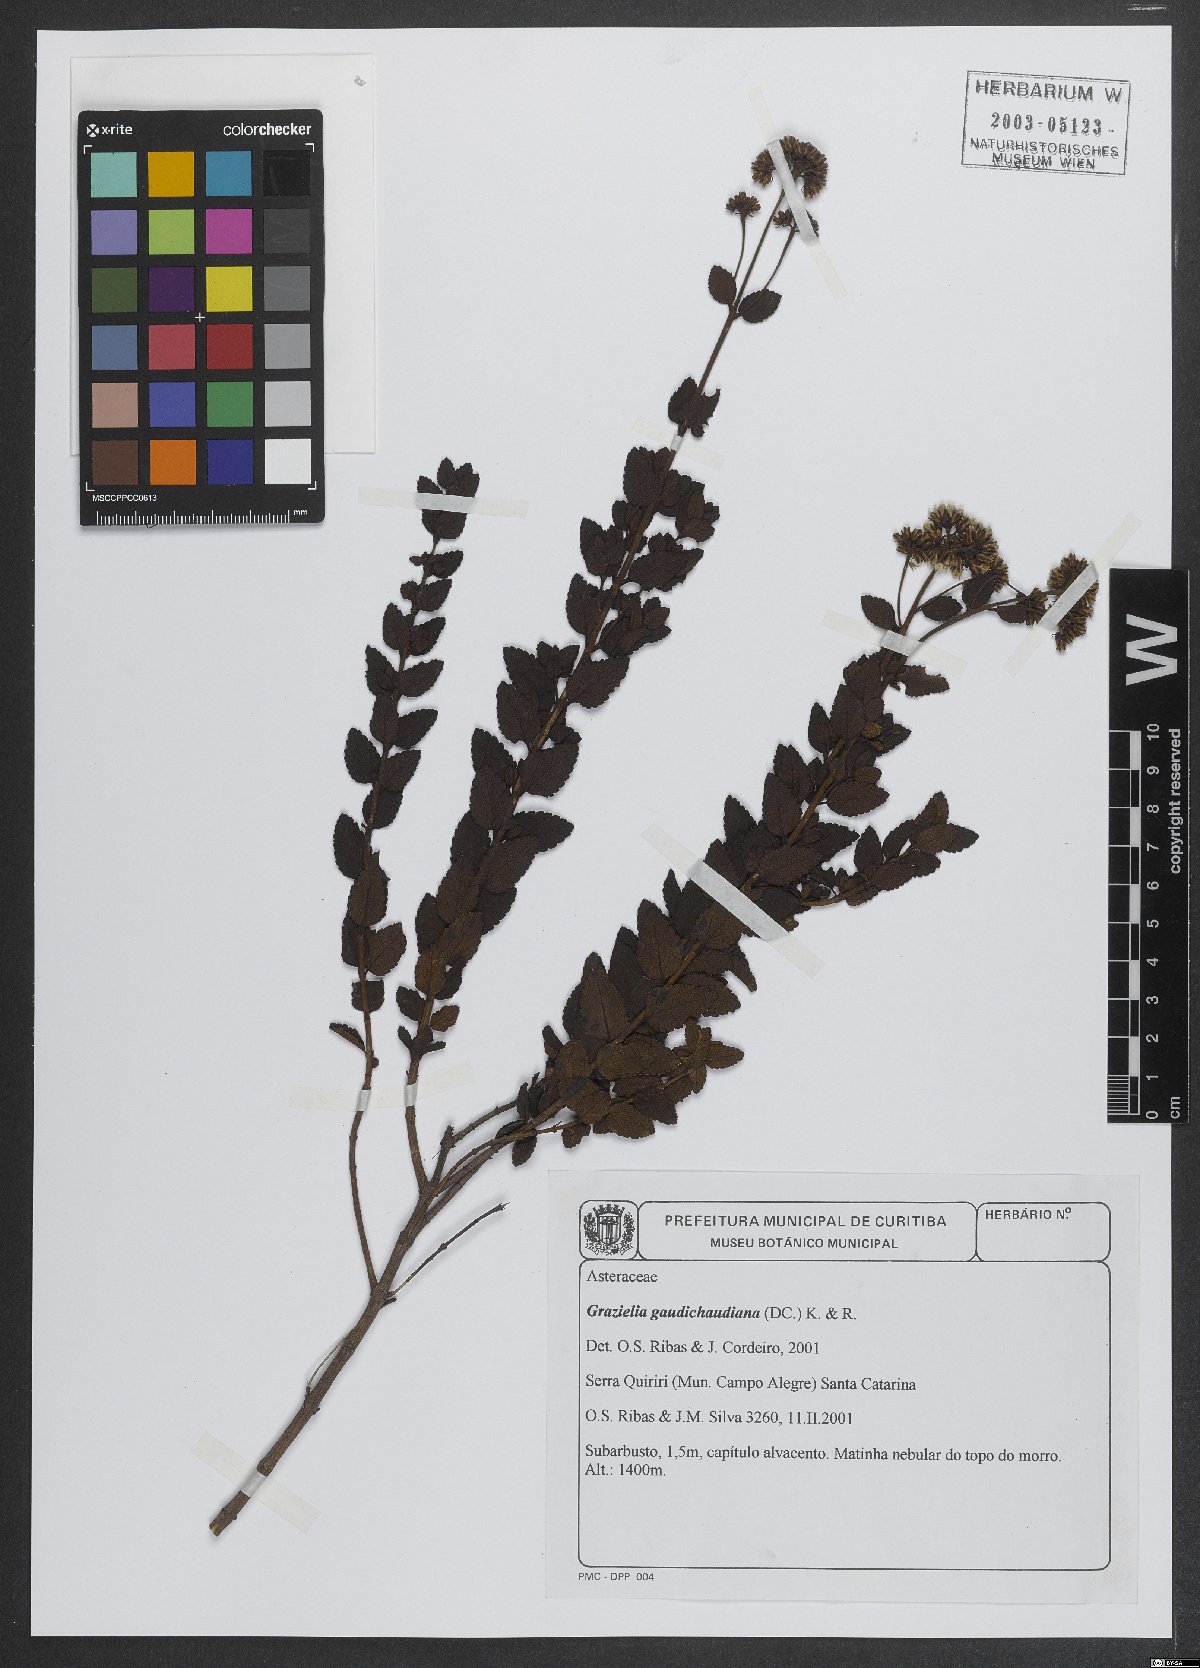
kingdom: Plantae
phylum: Tracheophyta
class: Magnoliopsida
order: Asterales
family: Asteraceae
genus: Grazielia
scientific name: Grazielia gaudichaudeana
